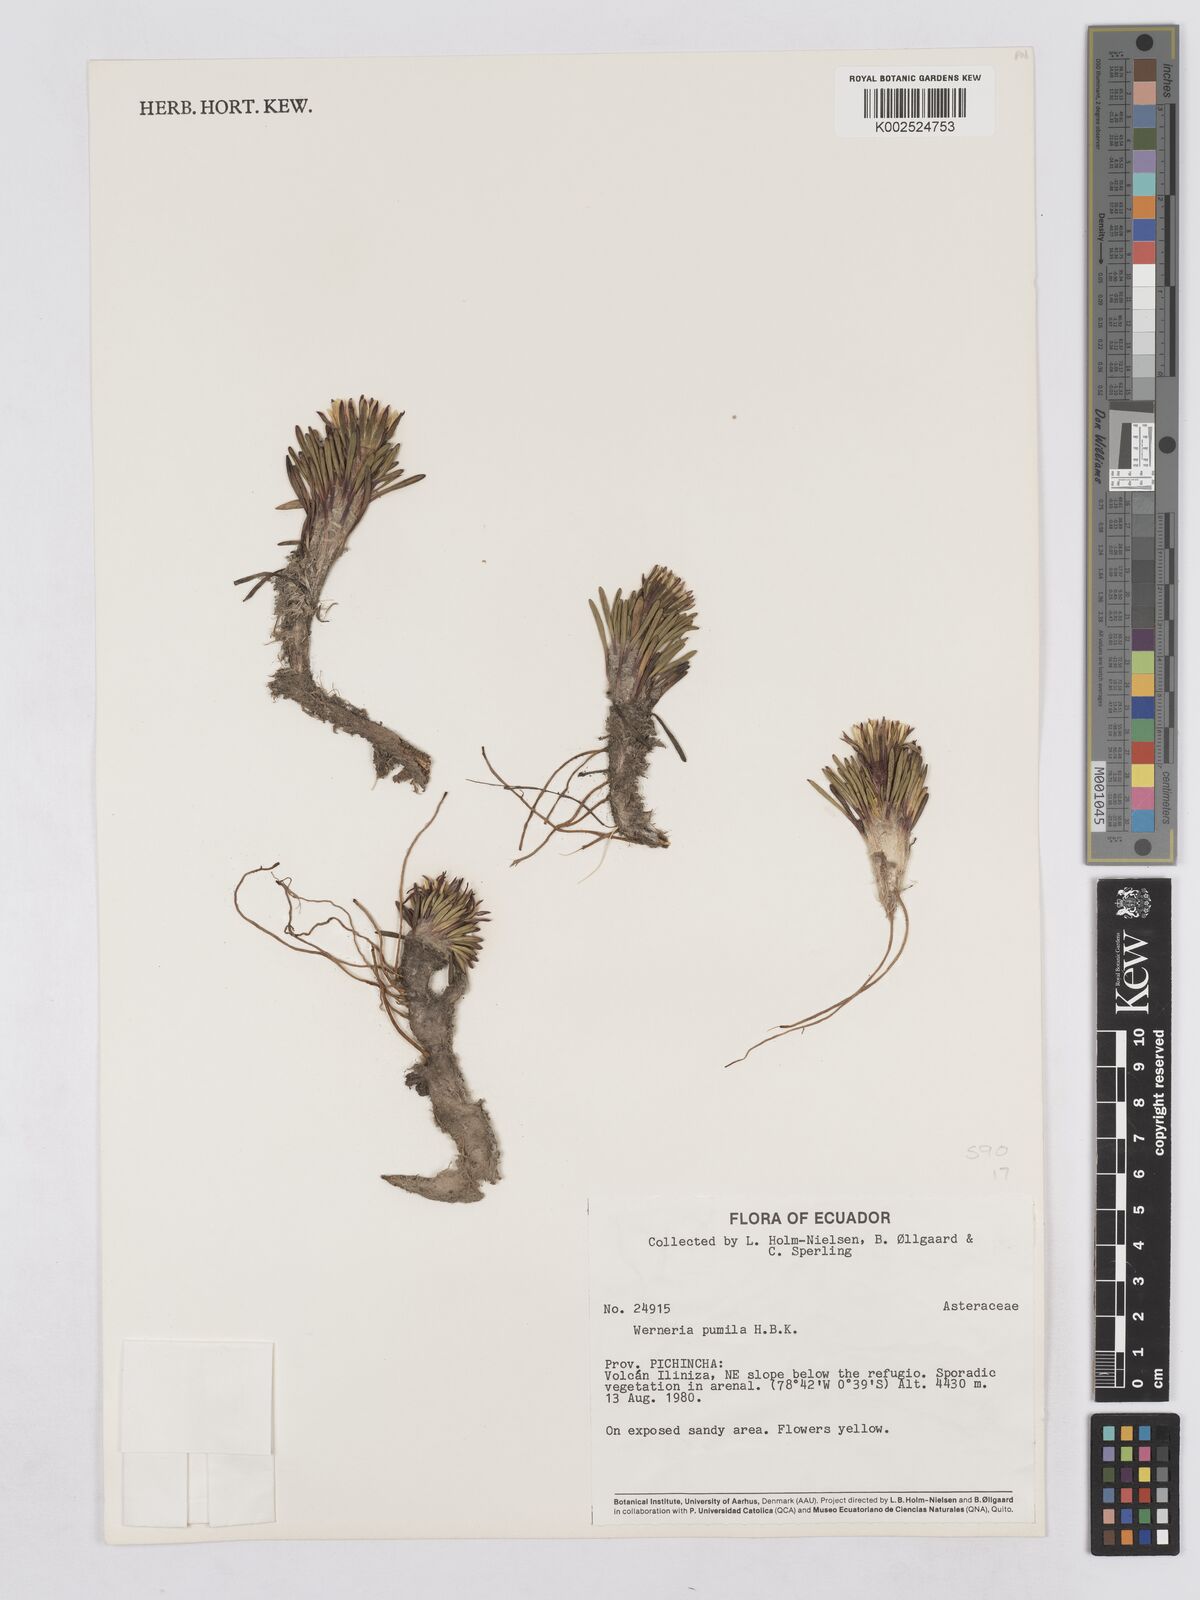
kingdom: Plantae
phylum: Tracheophyta
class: Magnoliopsida
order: Asterales
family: Asteraceae
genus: Rockhausenia
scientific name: Rockhausenia pumila
